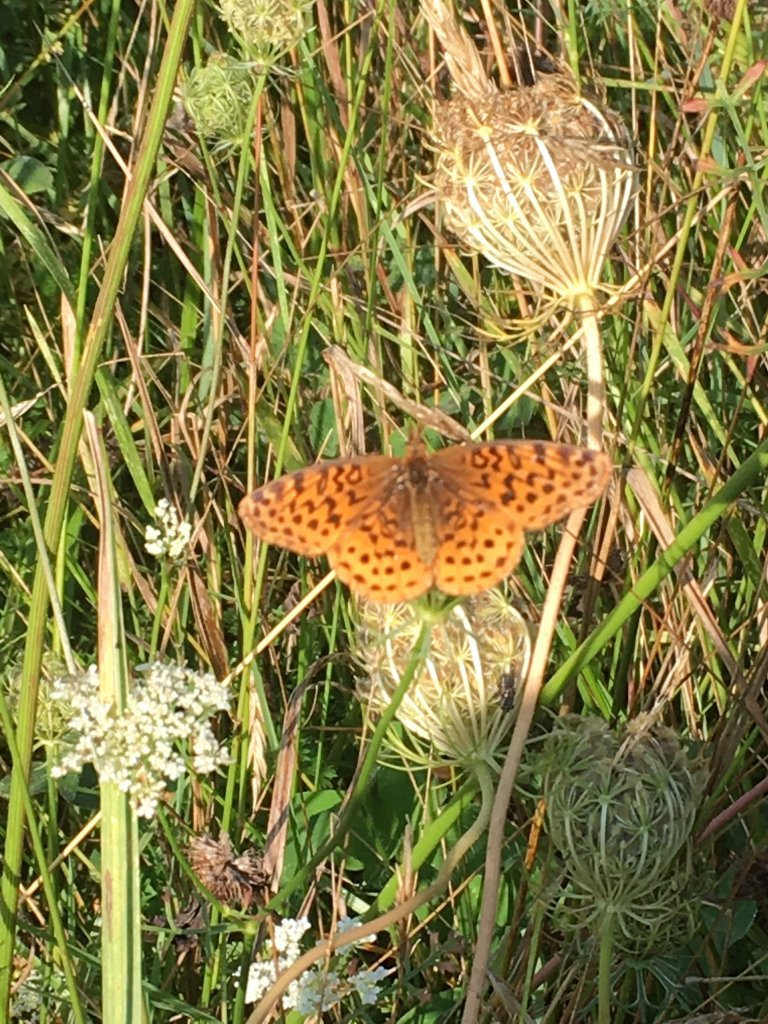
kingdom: Animalia
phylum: Arthropoda
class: Insecta
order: Lepidoptera
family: Nymphalidae
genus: Clossiana
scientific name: Clossiana toddi
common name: Meadow Fritillary
